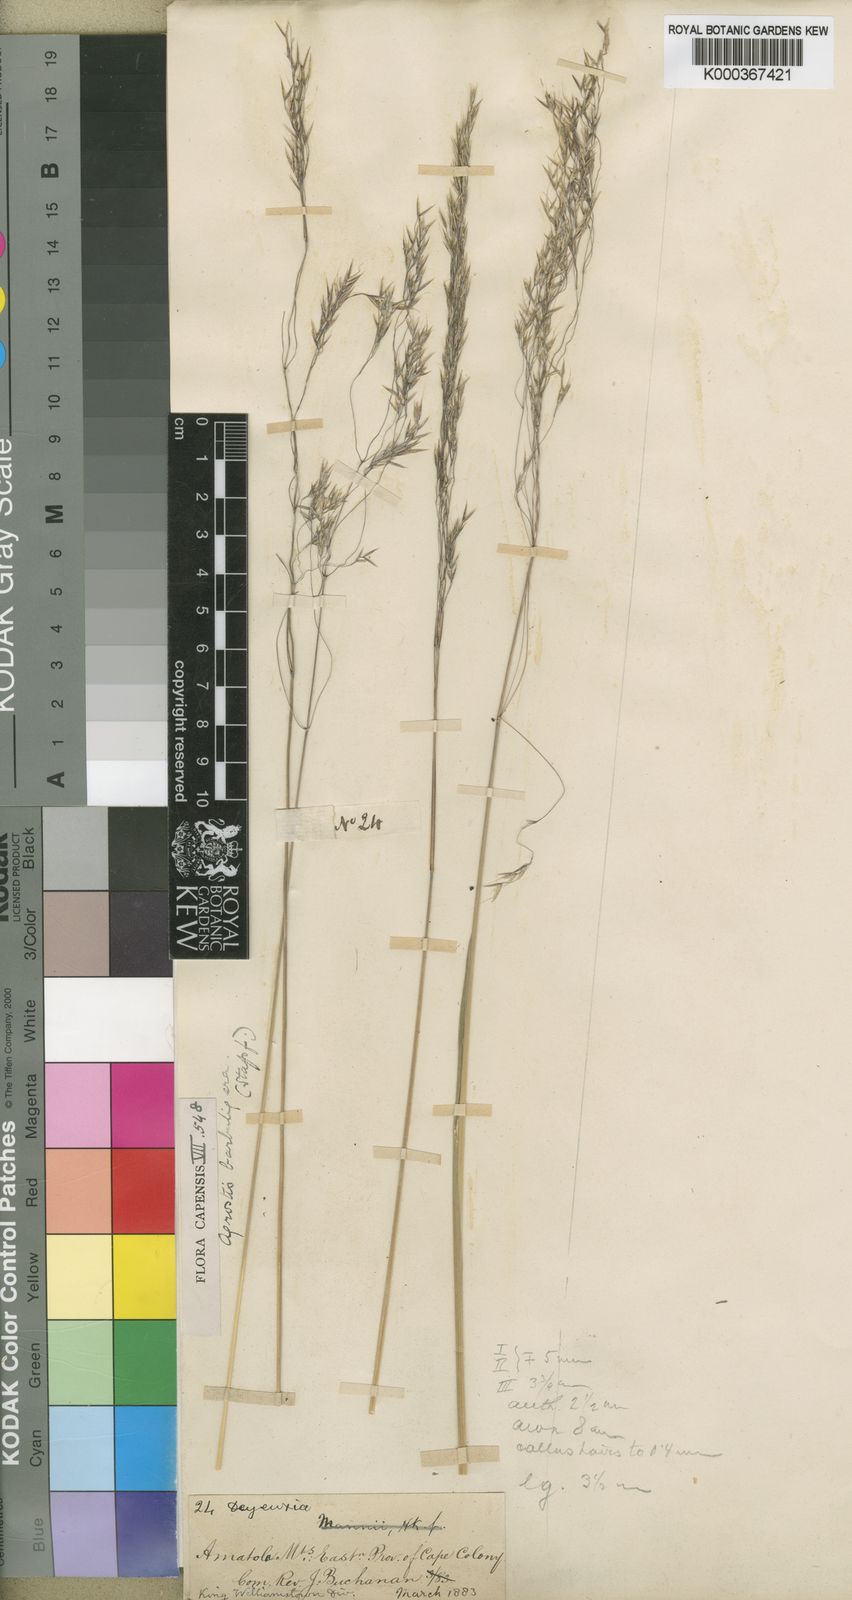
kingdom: Plantae
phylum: Tracheophyta
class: Liliopsida
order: Poales
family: Poaceae
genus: Lachnagrostis
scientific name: Lachnagrostis barbuligera
